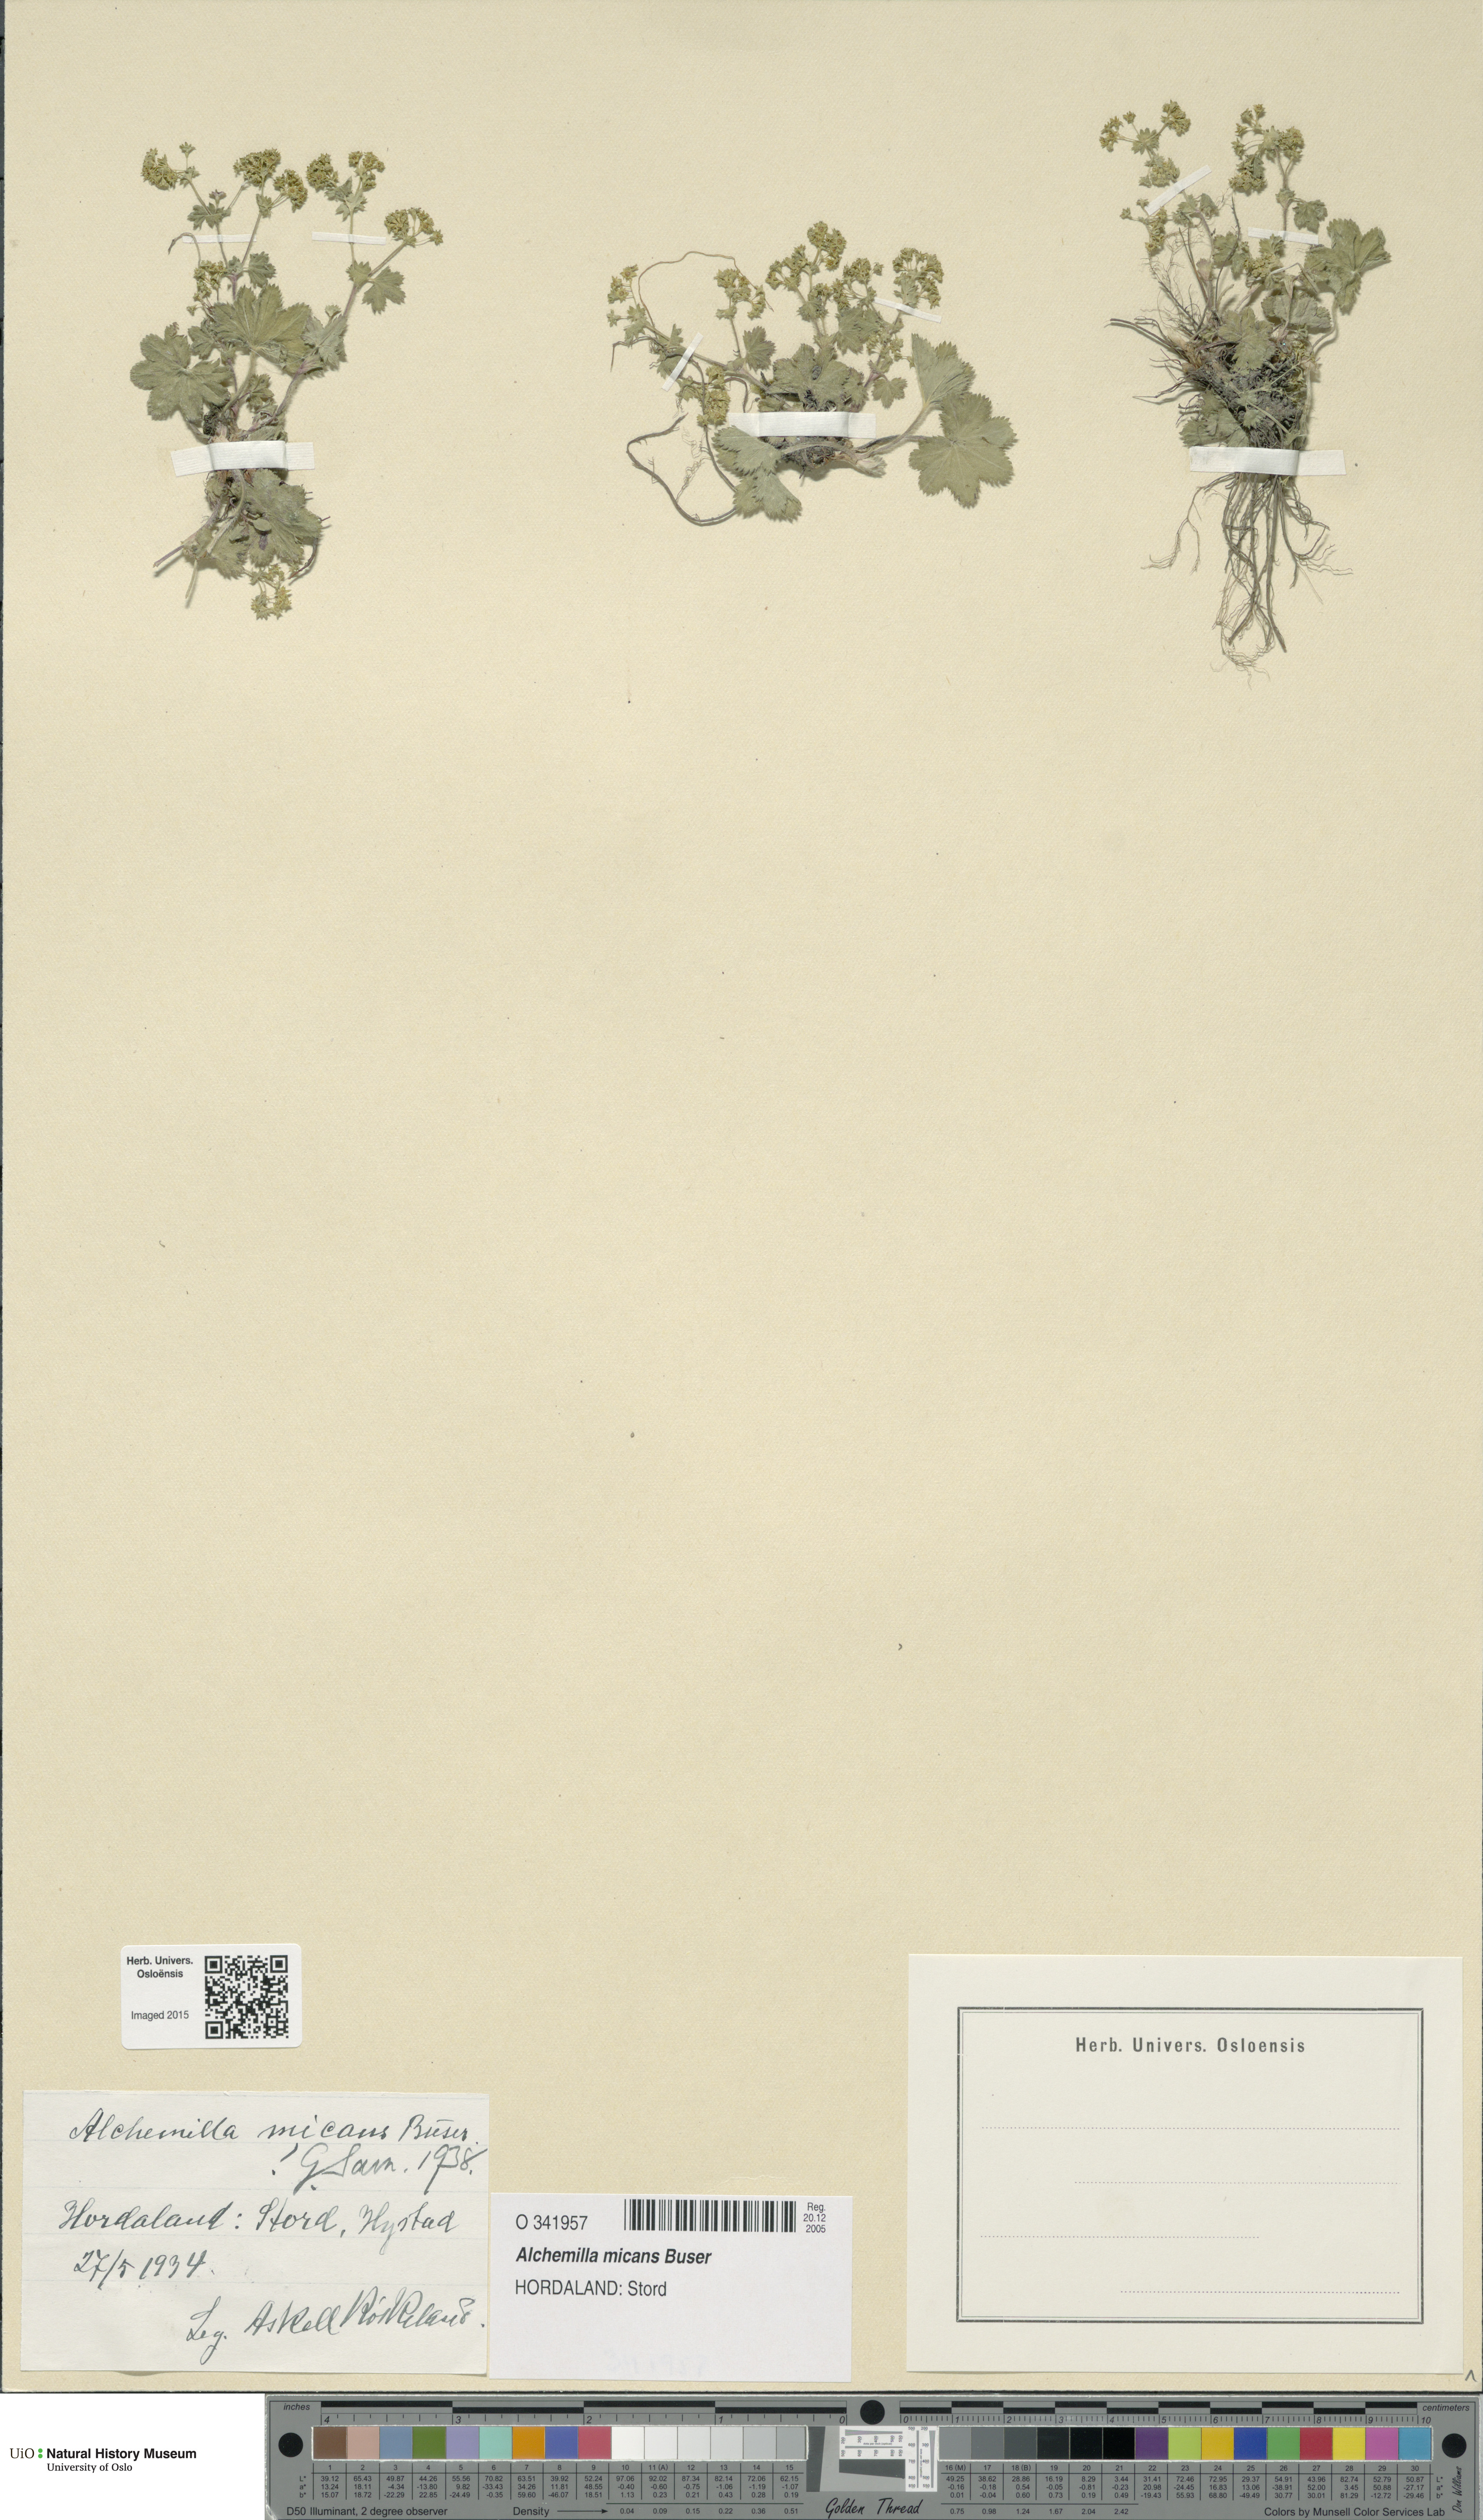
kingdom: Plantae
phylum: Tracheophyta
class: Magnoliopsida
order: Rosales
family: Rosaceae
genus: Alchemilla
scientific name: Alchemilla micans
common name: Gleaming lady's mantle
